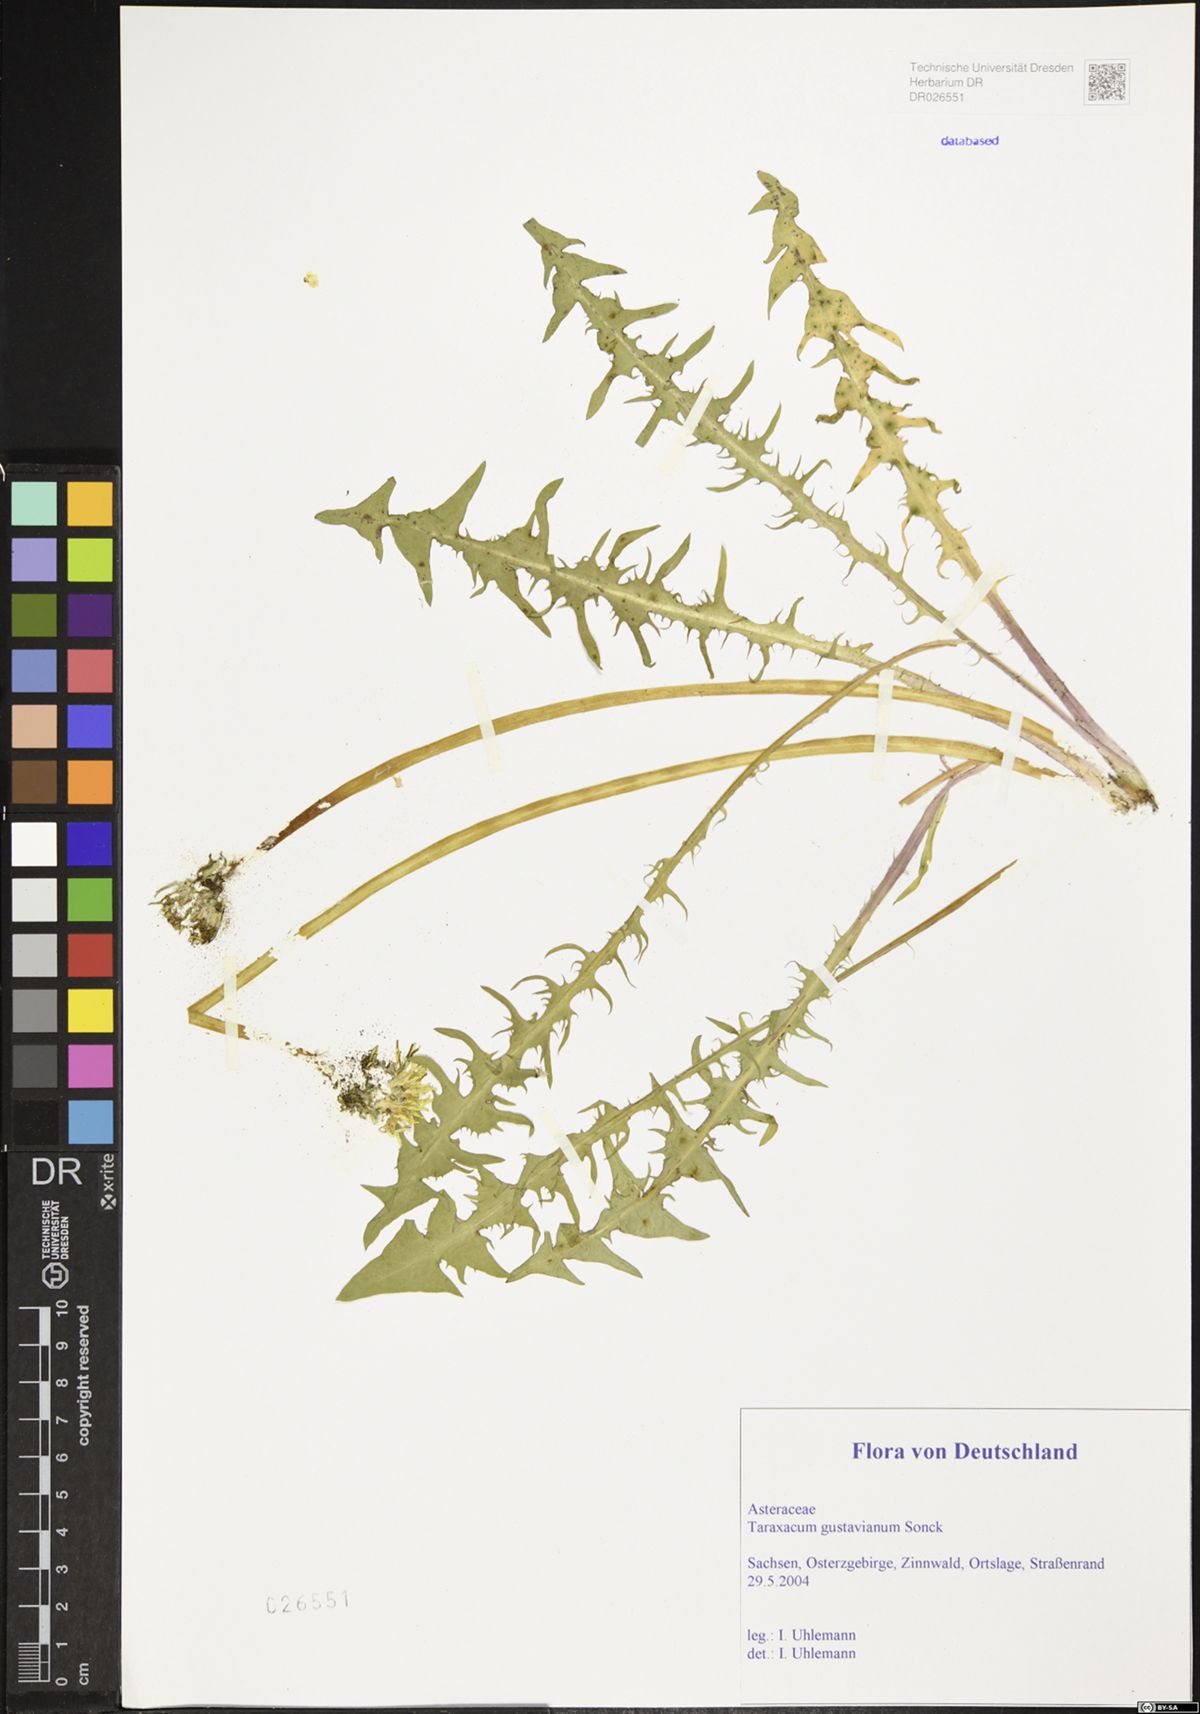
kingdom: Plantae
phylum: Tracheophyta
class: Magnoliopsida
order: Asterales
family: Asteraceae
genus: Taraxacum
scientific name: Taraxacum gustavianum
